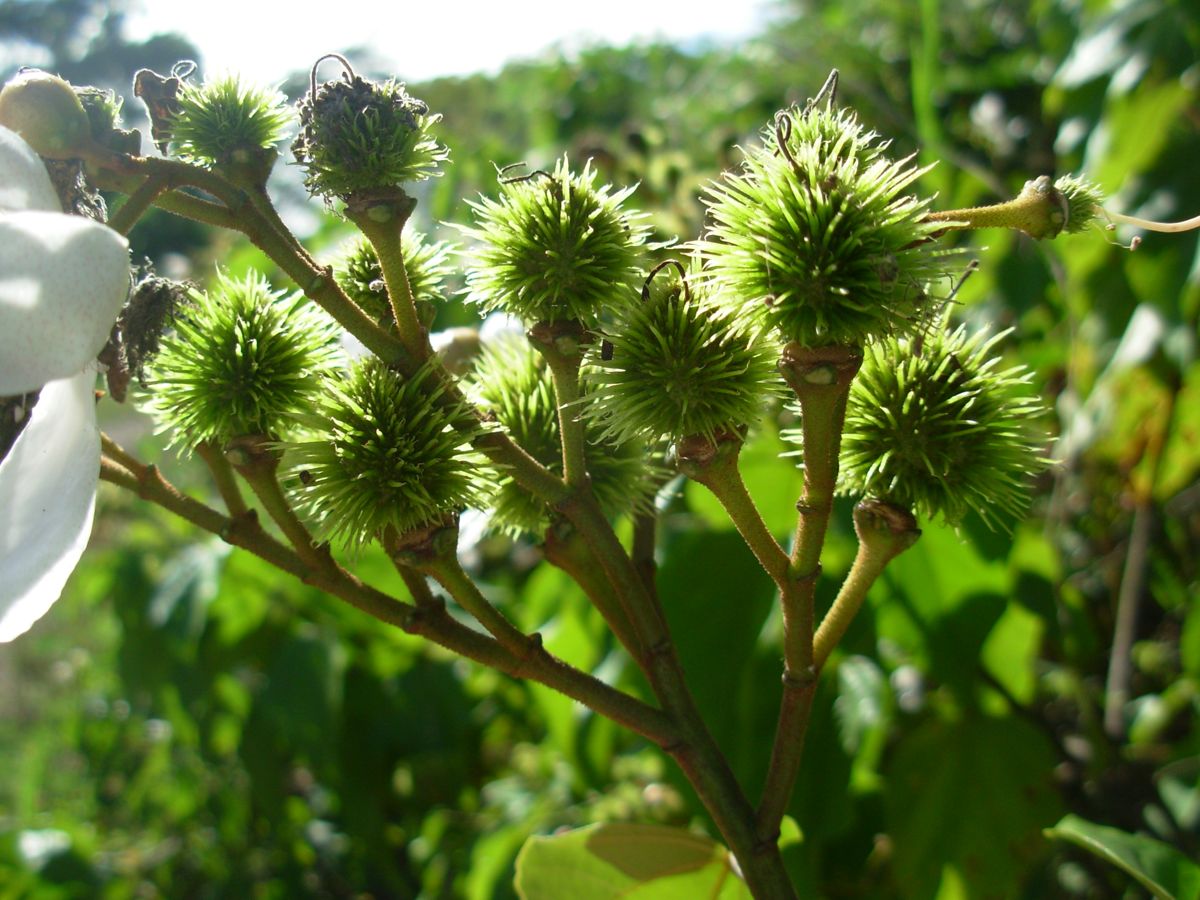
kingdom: Plantae
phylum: Tracheophyta
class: Magnoliopsida
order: Malvales
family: Bixaceae
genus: Bixa
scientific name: Bixa orellana
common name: Lipsticktree
